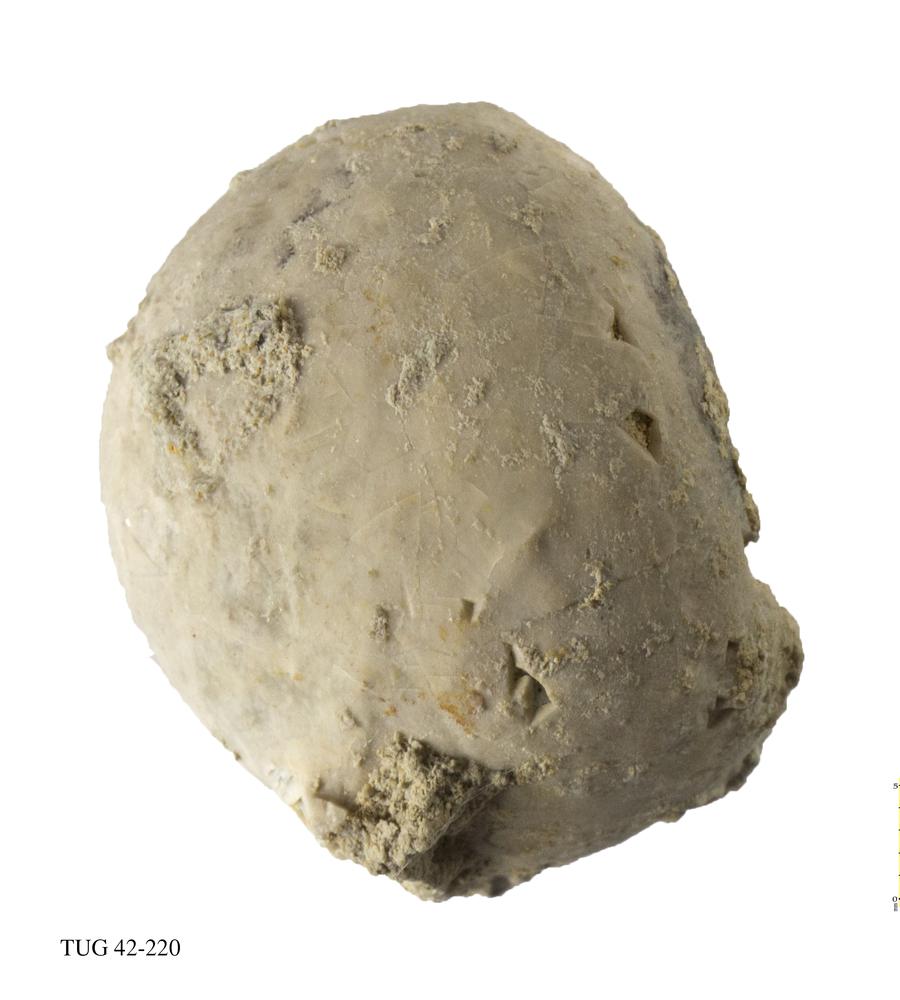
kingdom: Animalia
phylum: Echinodermata
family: Echinosphaeritidae
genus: Echinosphaerites
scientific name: Echinosphaerites Echinus aurantium
